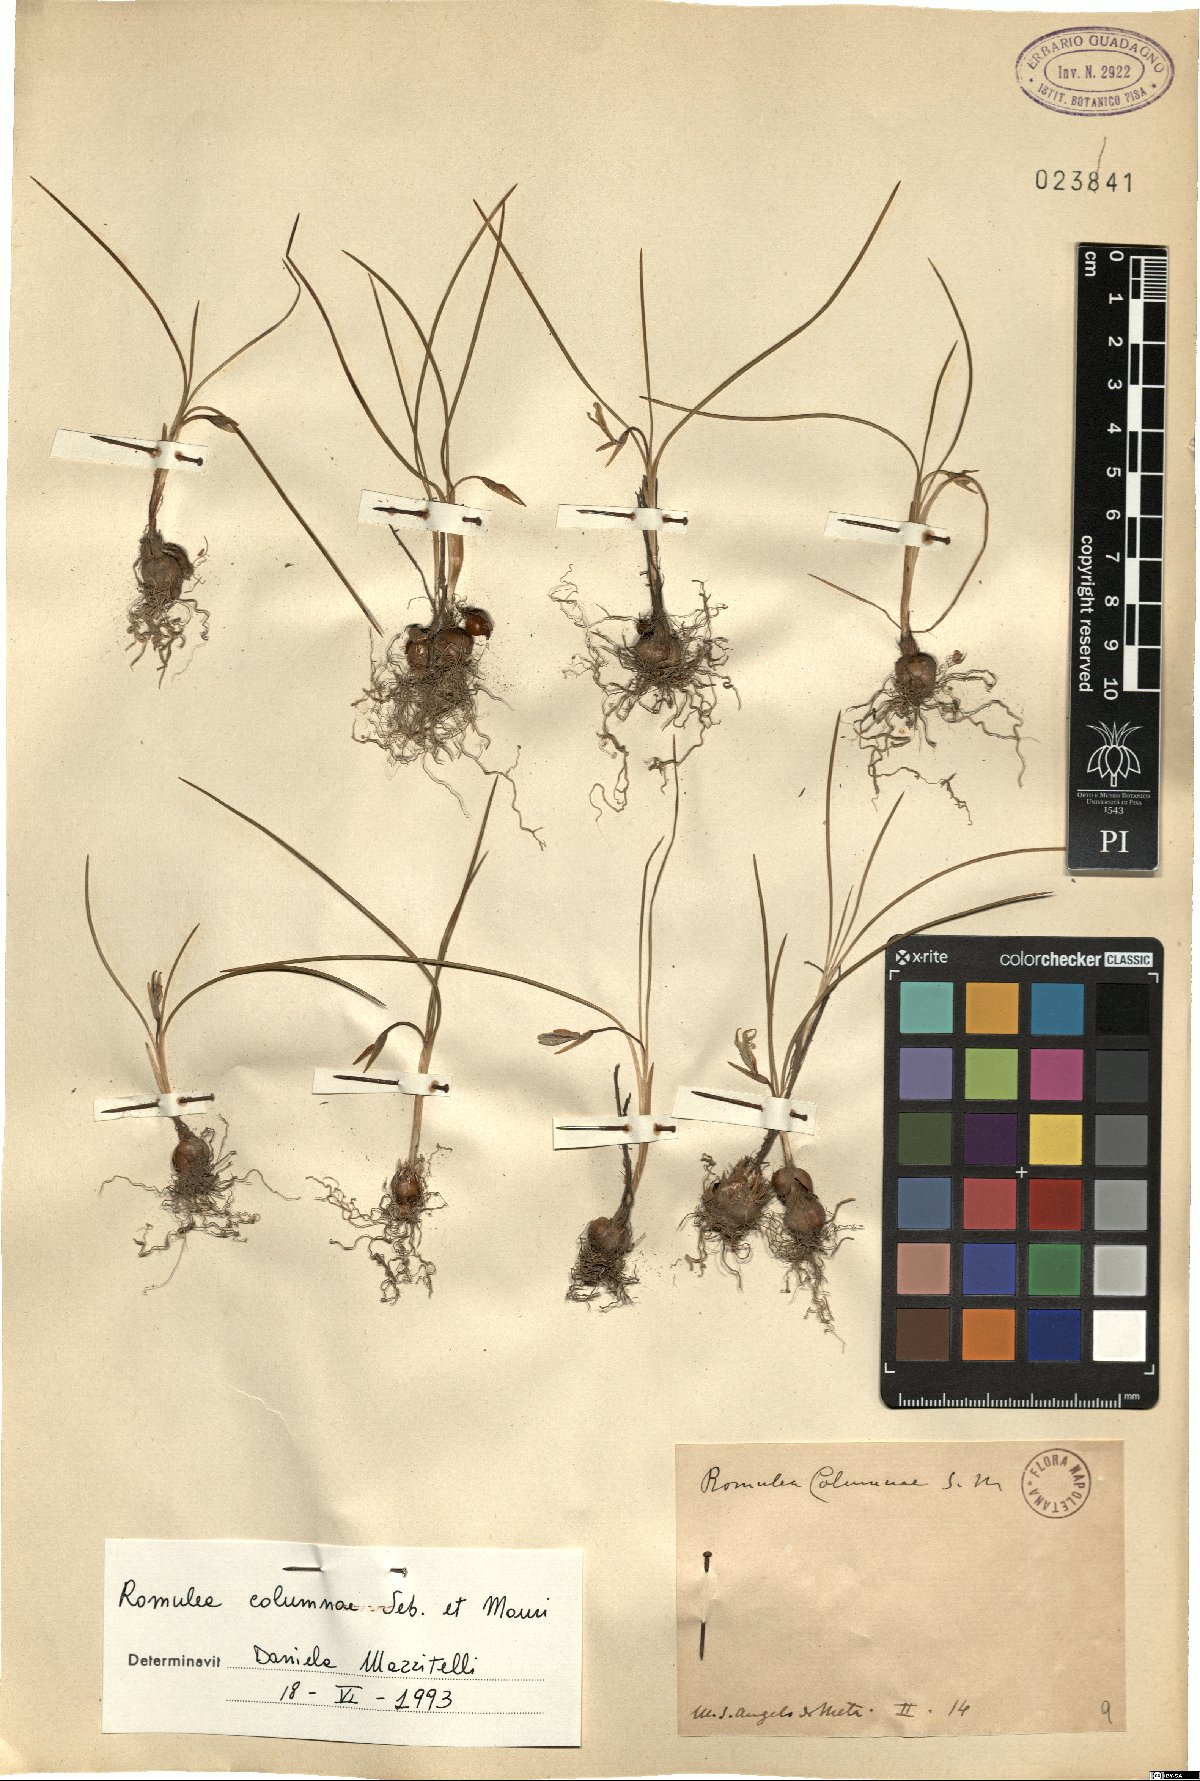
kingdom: Plantae
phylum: Tracheophyta
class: Liliopsida
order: Asparagales
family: Iridaceae
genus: Romulea
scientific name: Romulea columnae
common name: Sand-crocus
